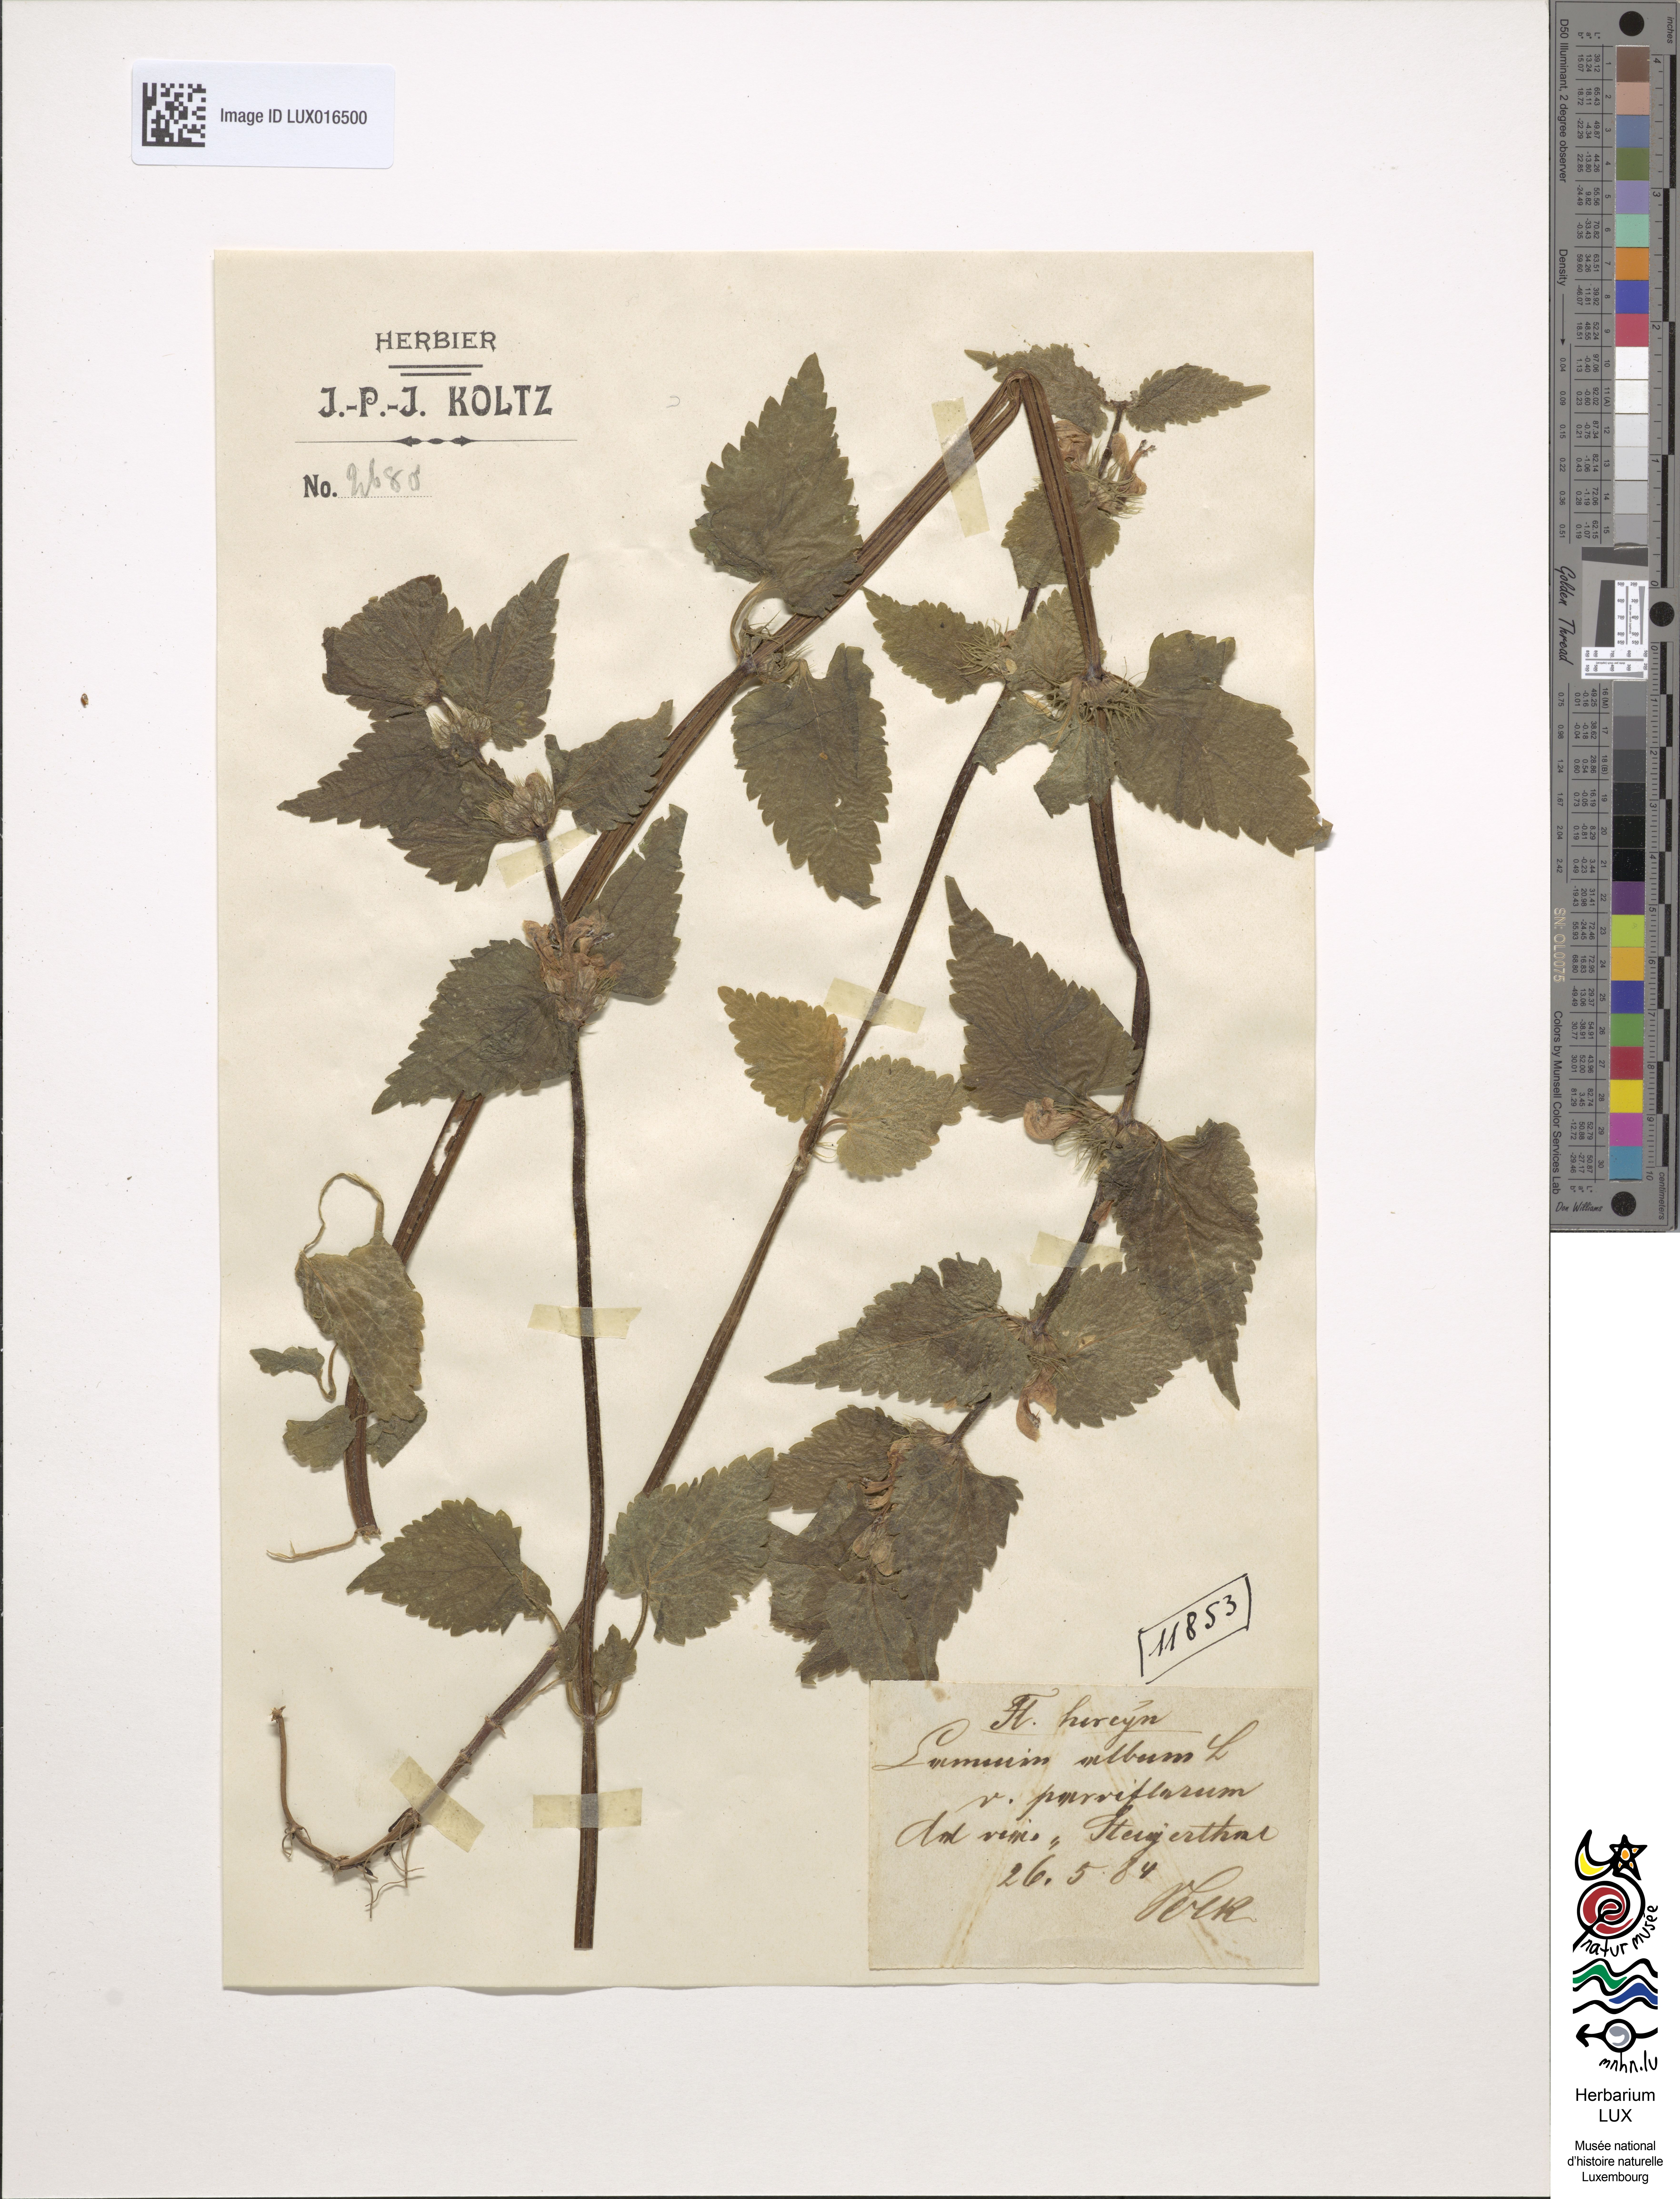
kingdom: Plantae
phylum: Tracheophyta
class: Magnoliopsida
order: Lamiales
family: Lamiaceae
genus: Lamium
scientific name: Lamium flexuosum
